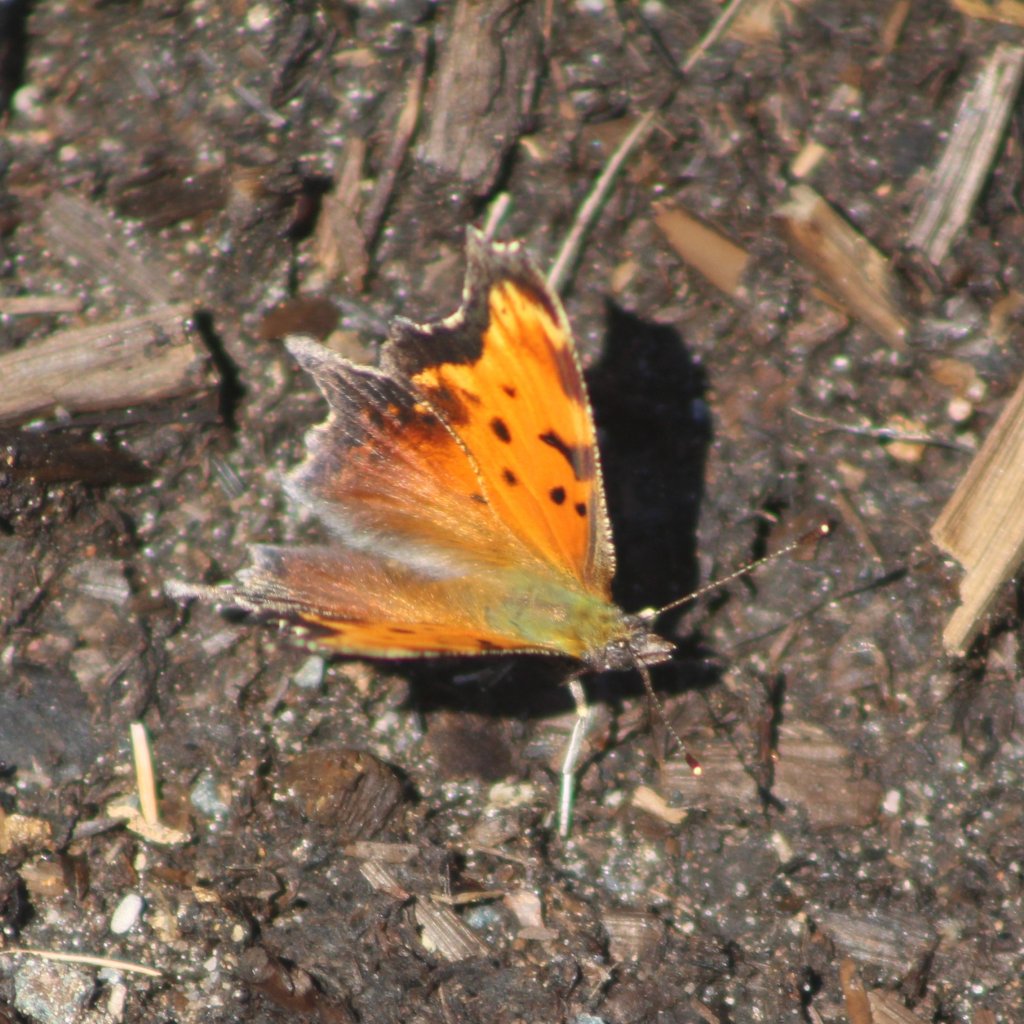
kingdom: Animalia
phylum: Arthropoda
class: Insecta
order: Lepidoptera
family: Nymphalidae
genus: Polygonia
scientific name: Polygonia progne
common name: Gray Comma
